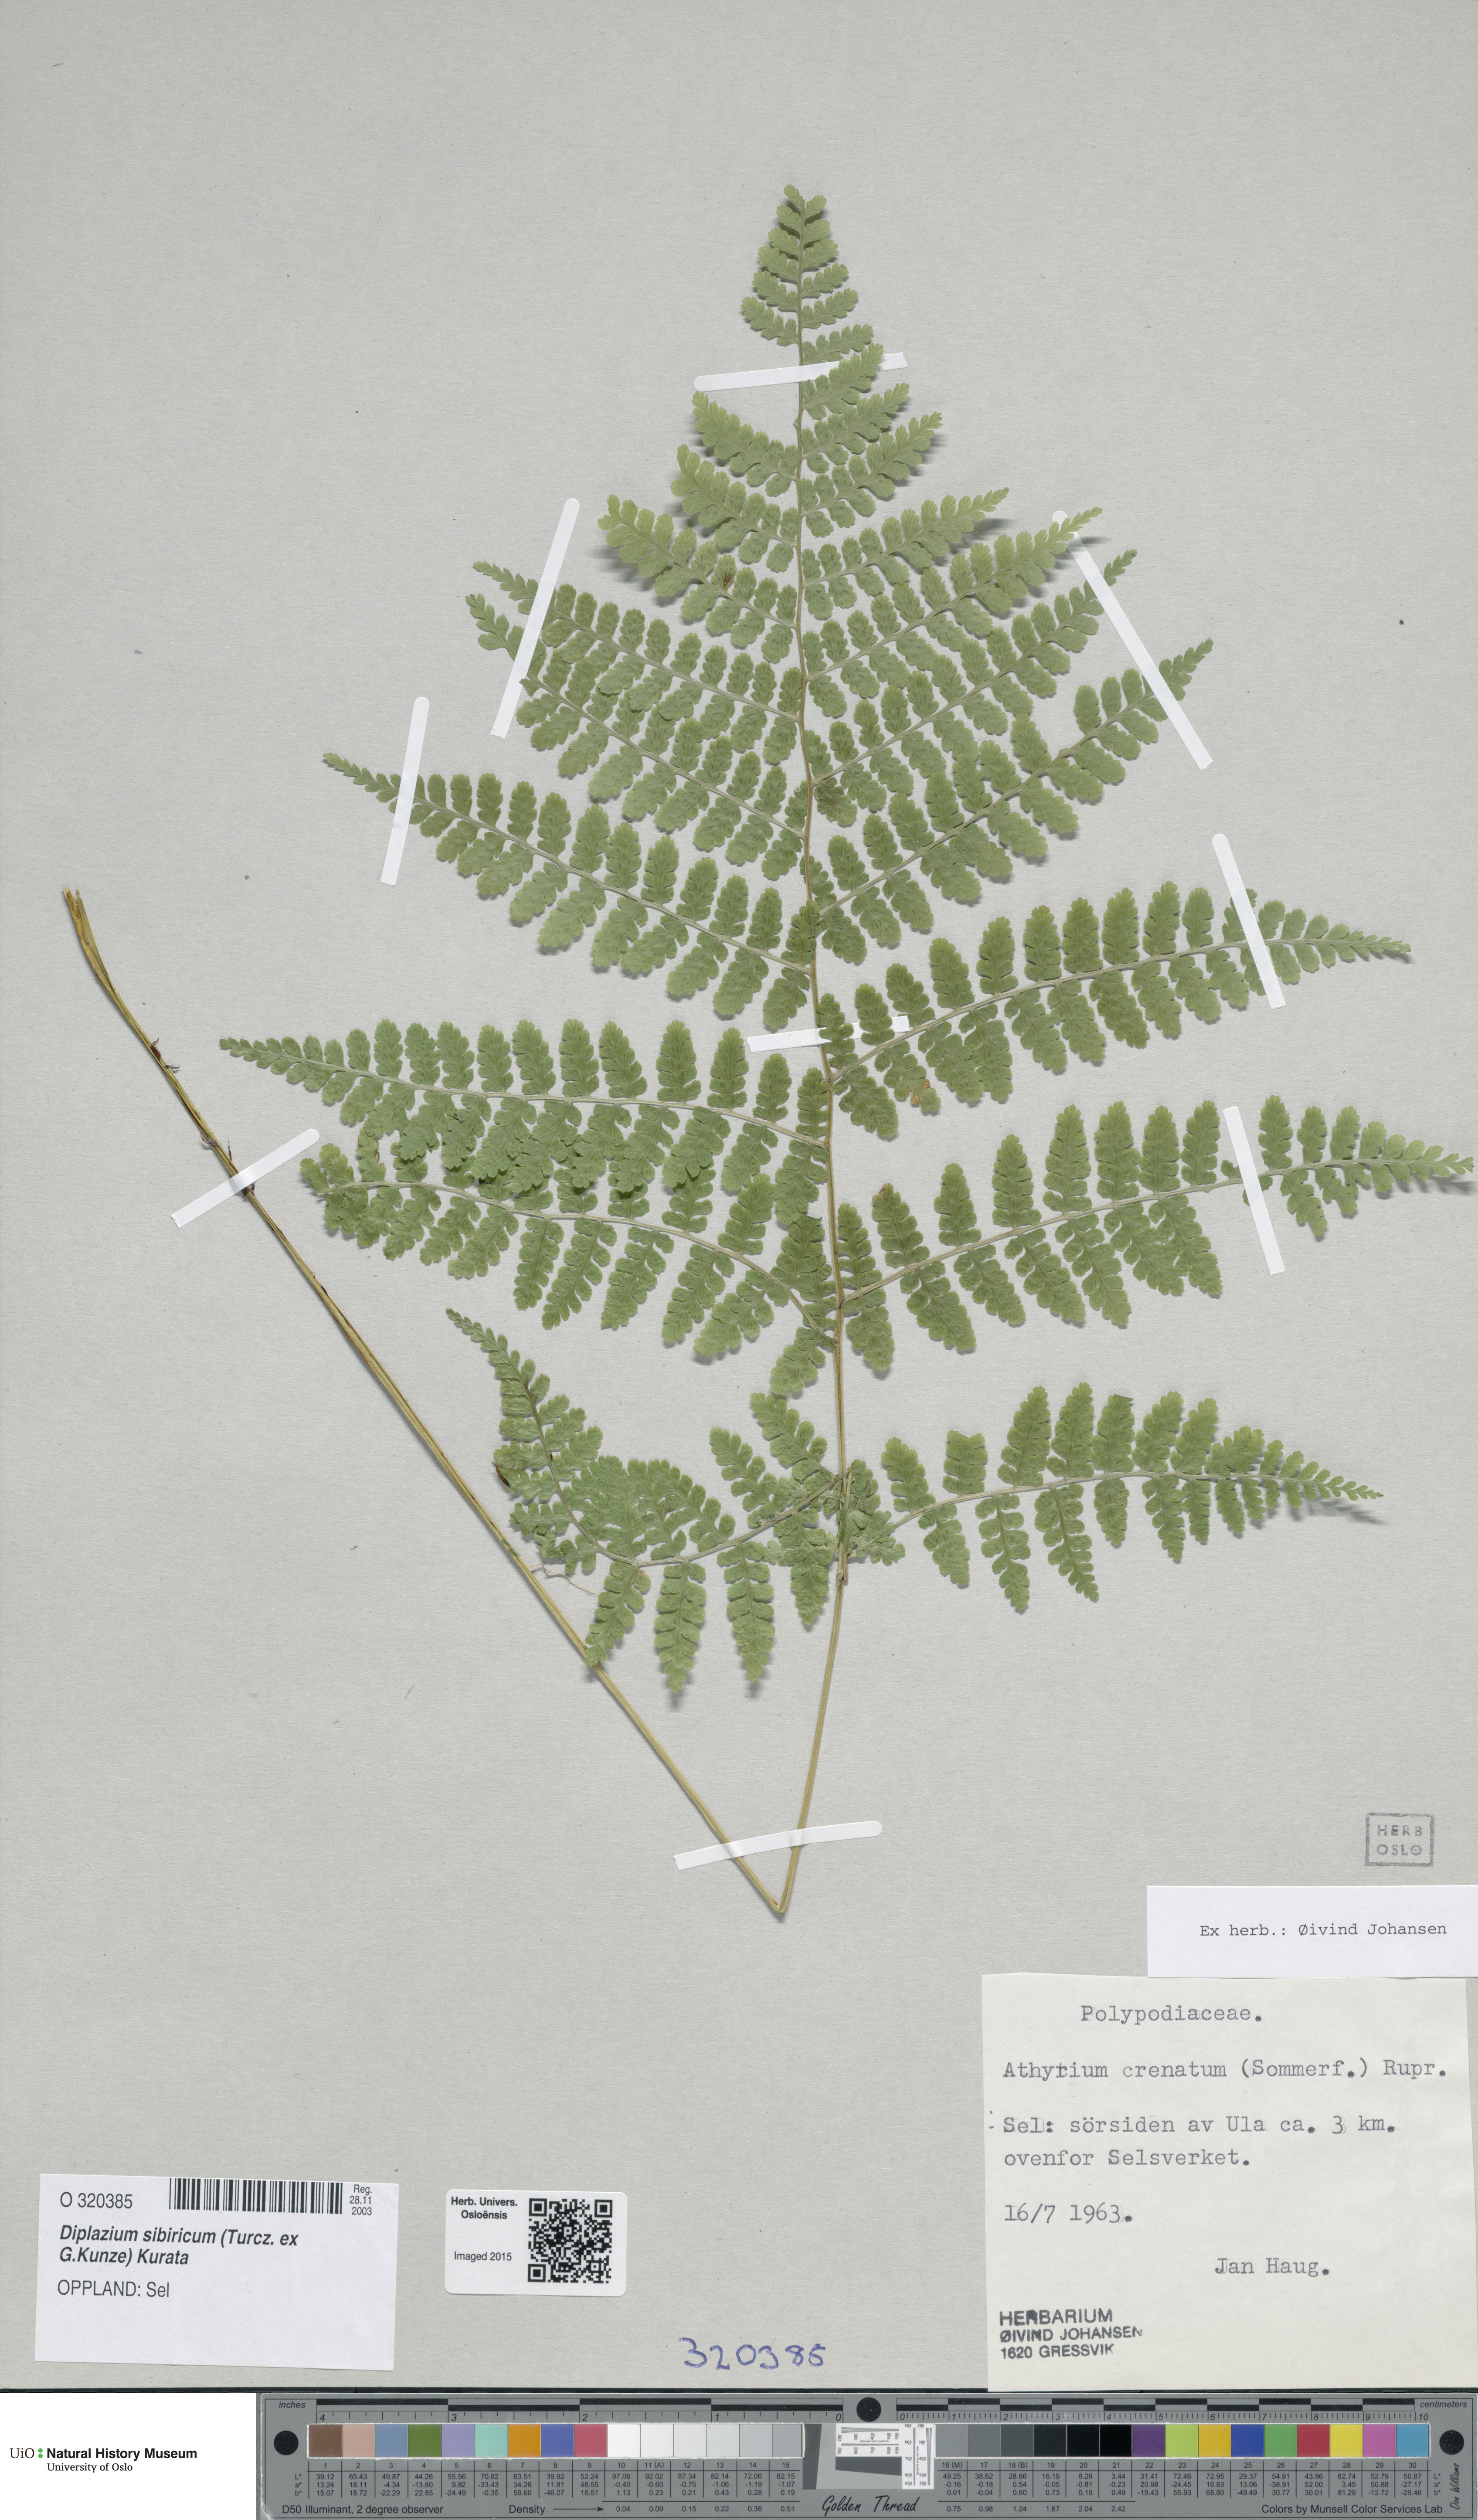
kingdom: Plantae
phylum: Tracheophyta
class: Polypodiopsida
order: Polypodiales
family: Athyriaceae
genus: Diplazium
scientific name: Diplazium sibiricum
